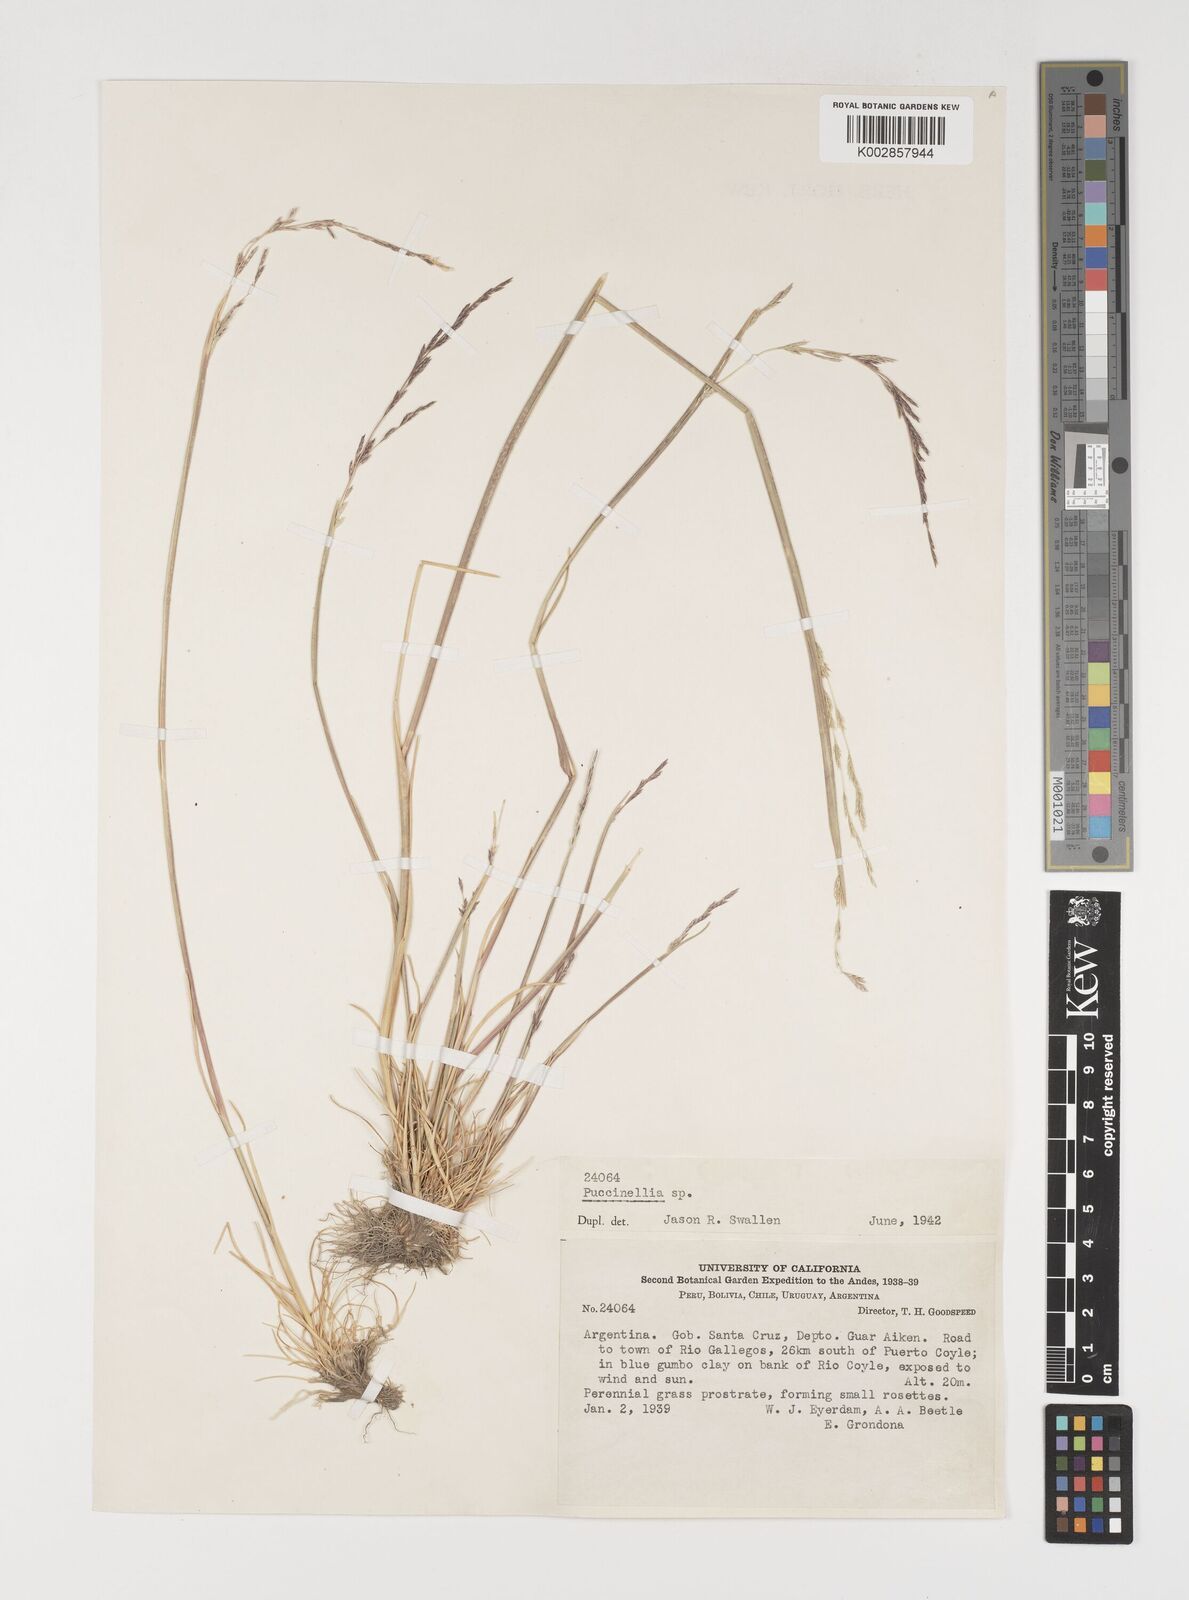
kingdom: Plantae
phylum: Tracheophyta
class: Liliopsida
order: Poales
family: Poaceae
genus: Puccinellia
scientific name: Puccinellia glaucescens
